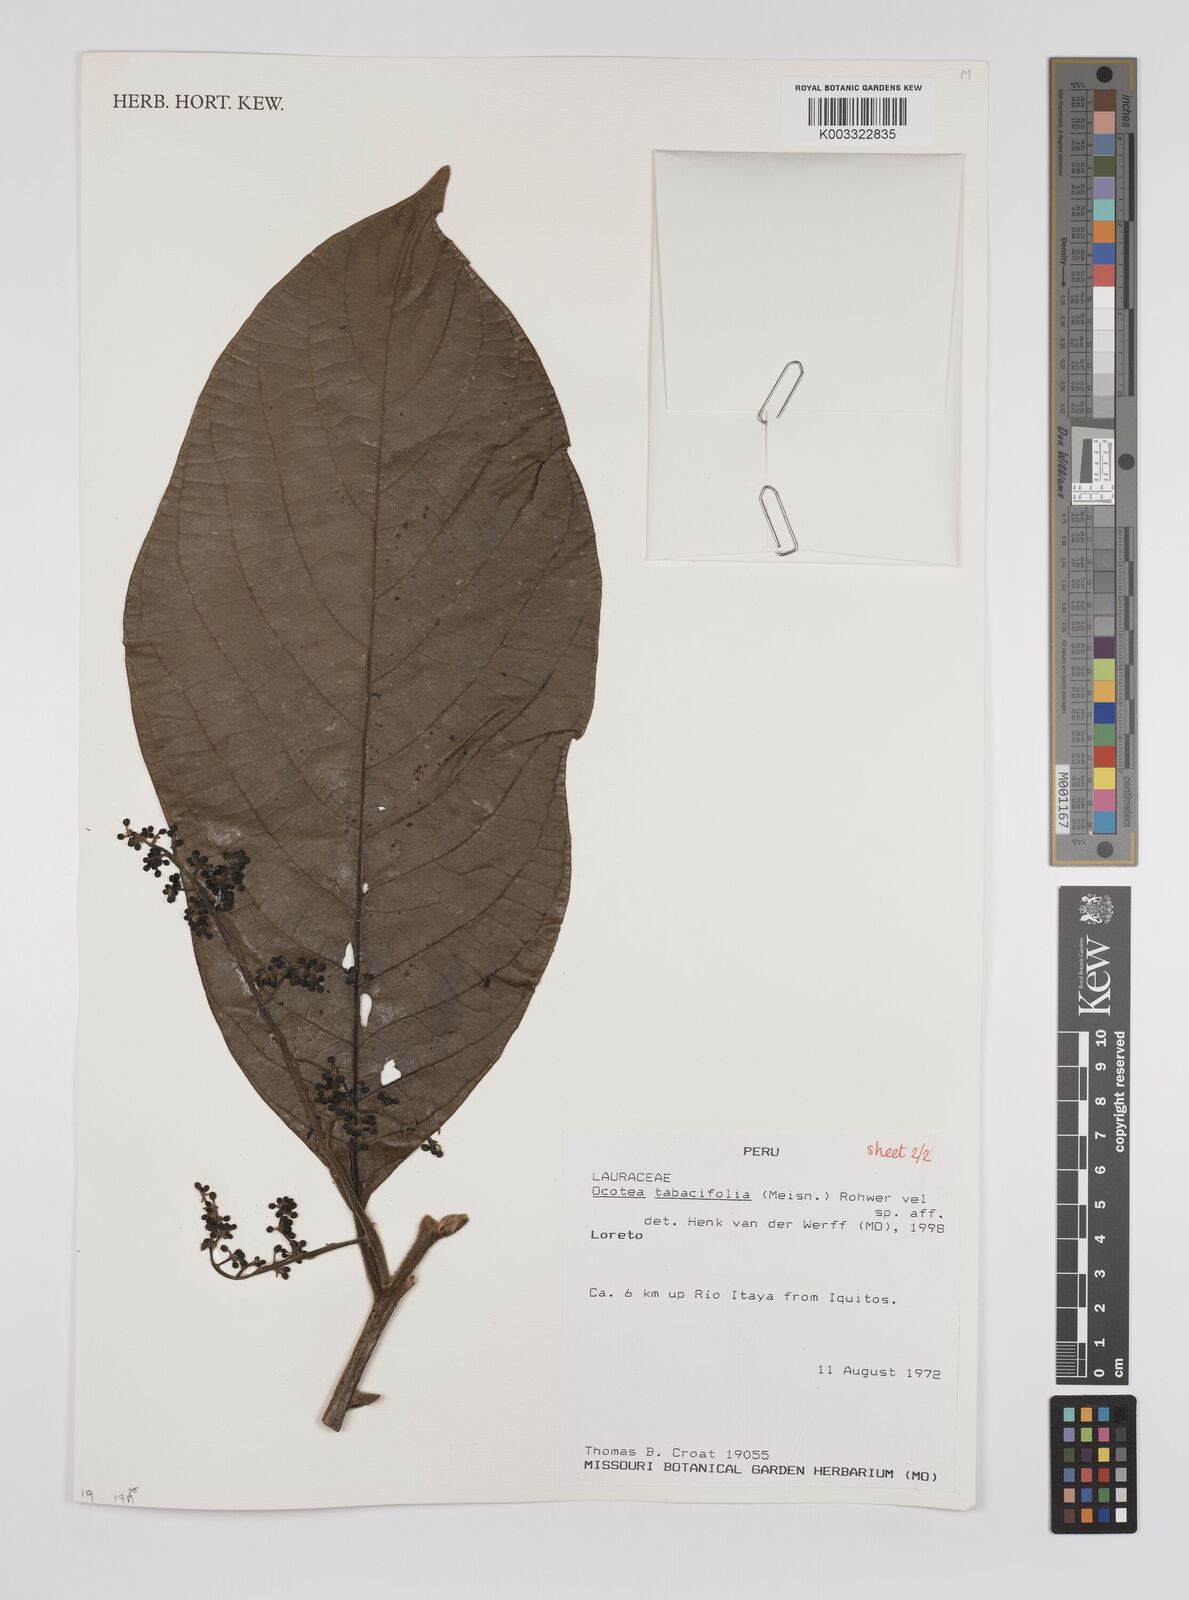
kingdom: Plantae
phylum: Tracheophyta
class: Magnoliopsida
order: Laurales
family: Lauraceae
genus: Ocotea
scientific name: Ocotea tabacifolia
